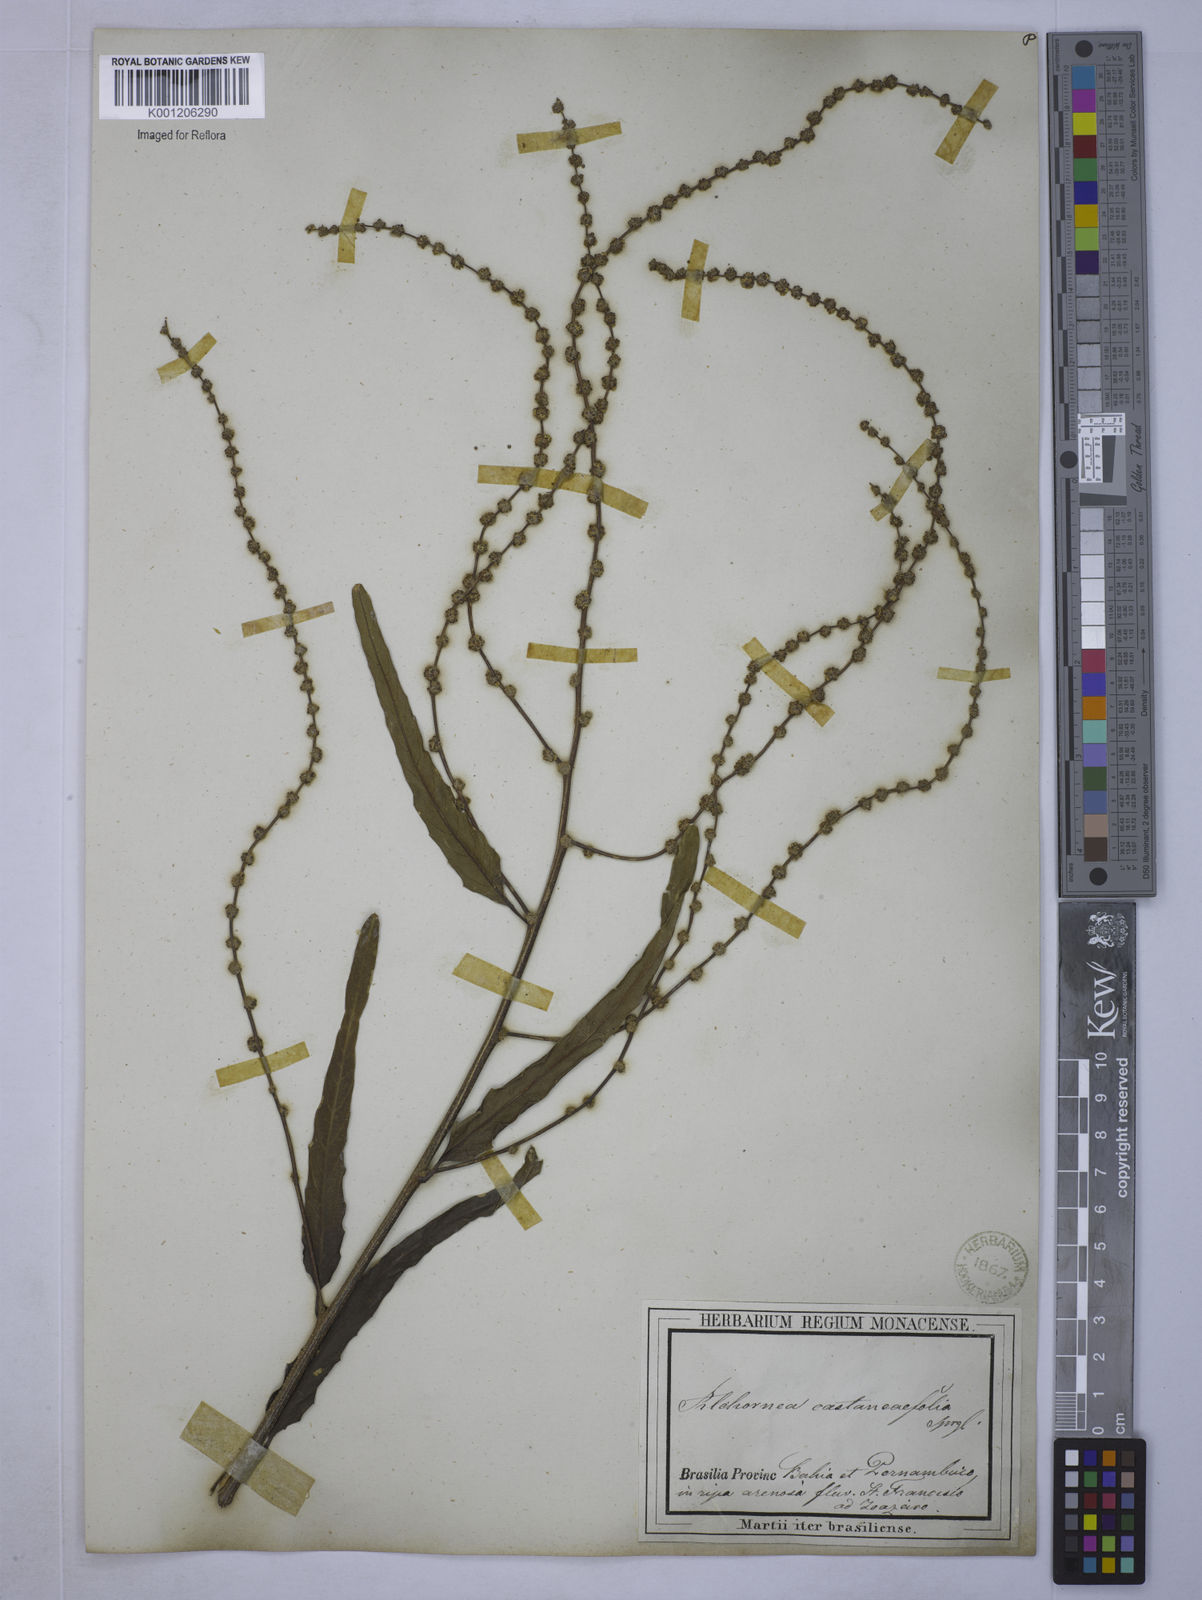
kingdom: Plantae
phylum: Tracheophyta
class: Magnoliopsida
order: Malpighiales
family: Euphorbiaceae
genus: Alchornea
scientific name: Alchornea castaneifolia
